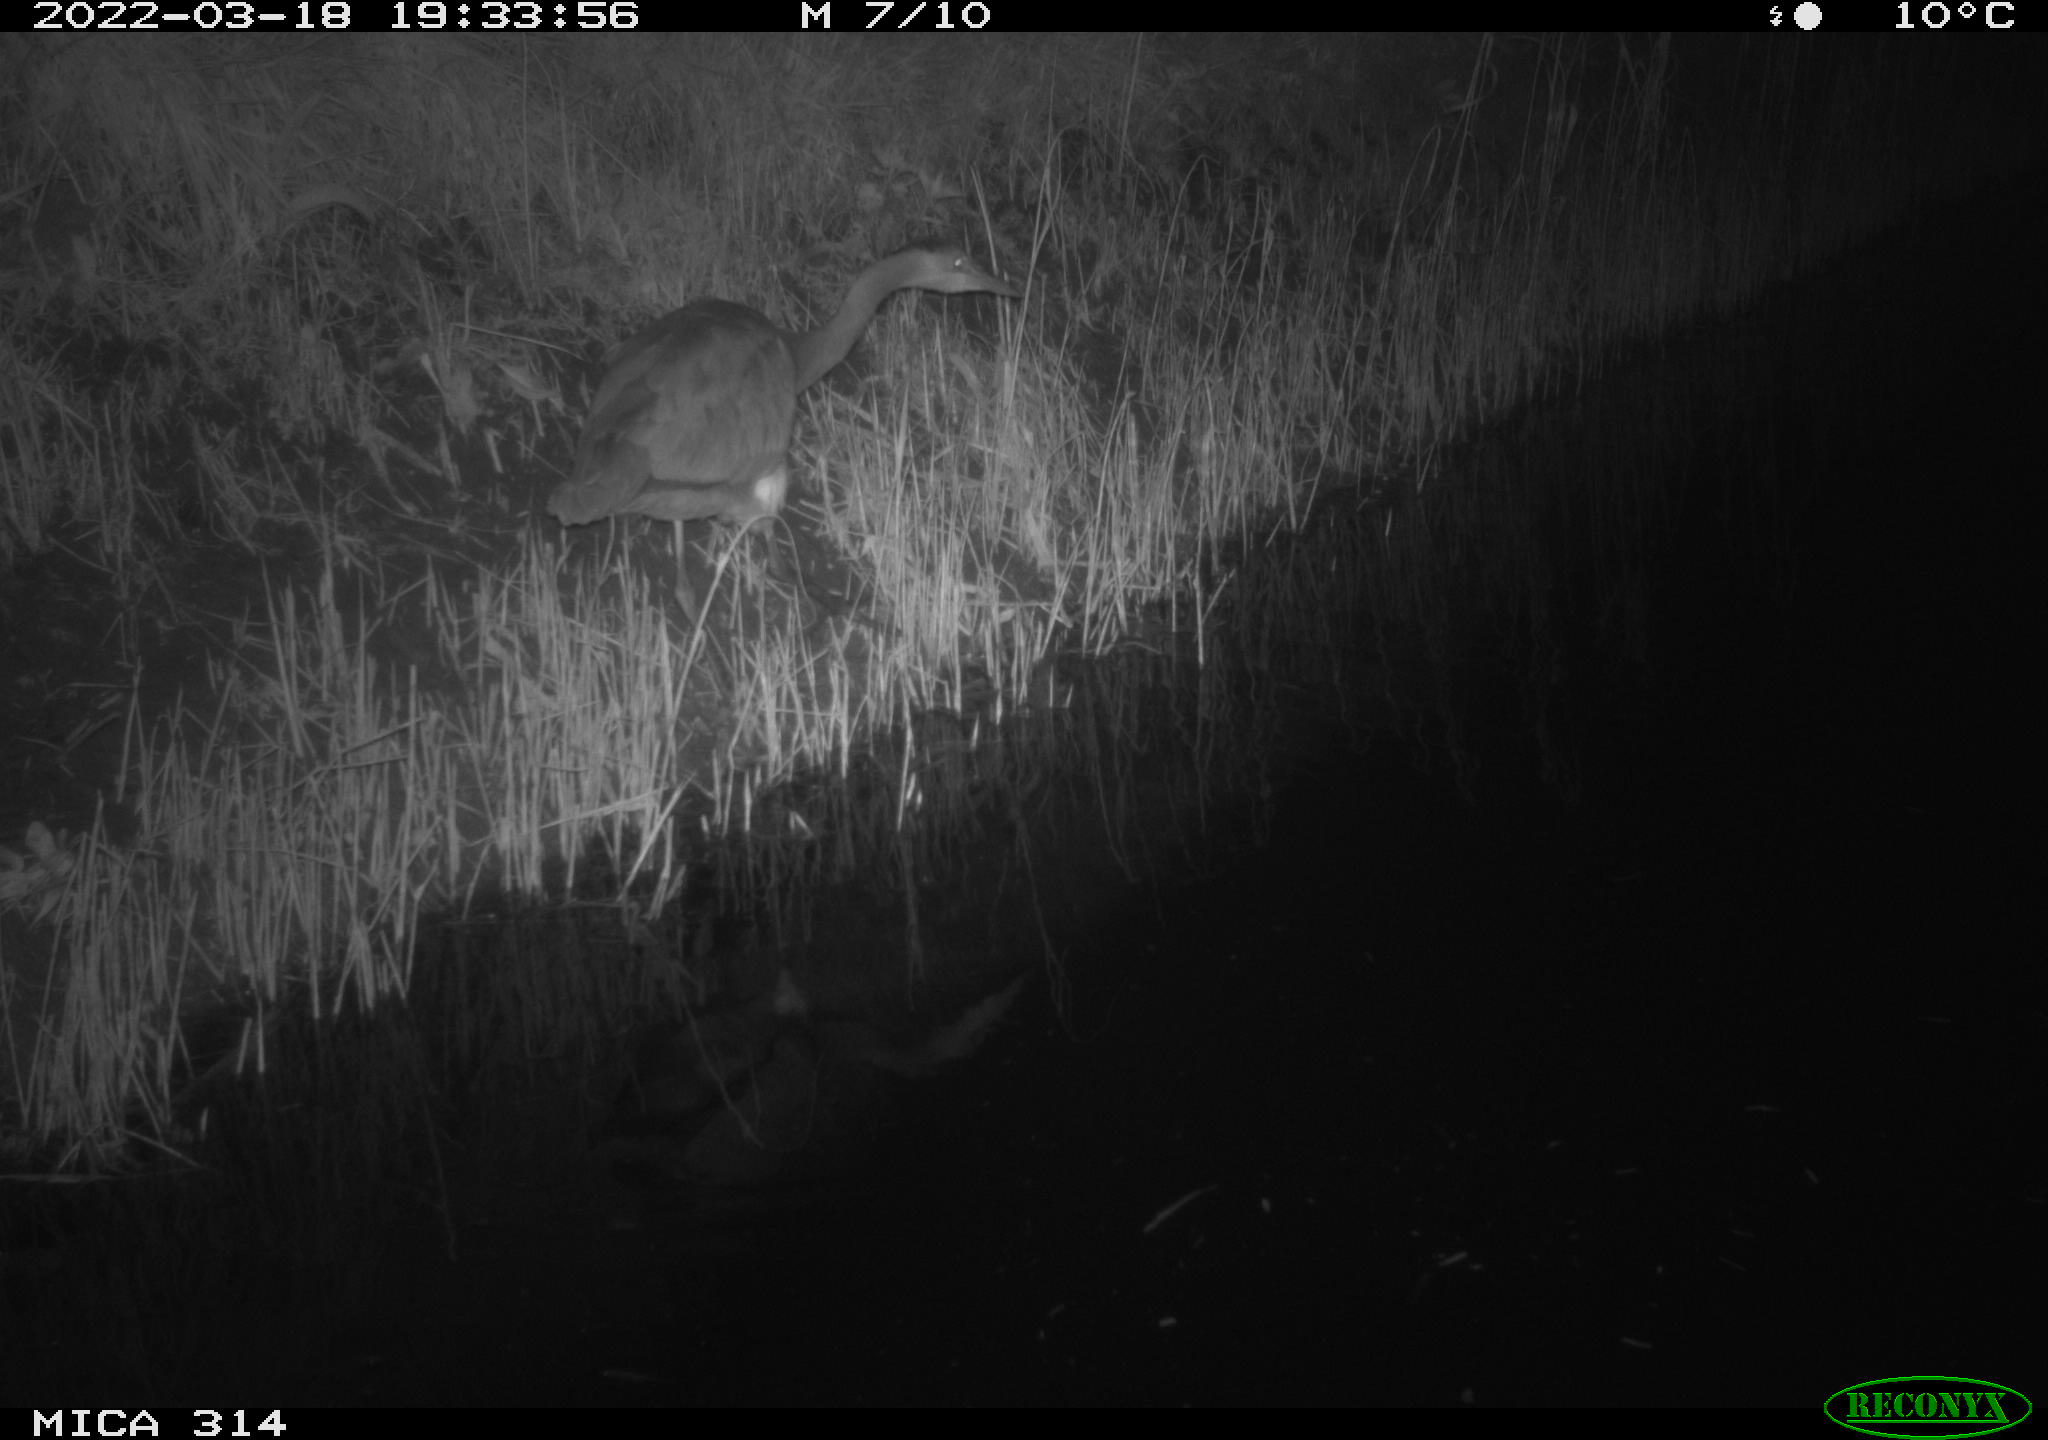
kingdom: Animalia
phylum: Chordata
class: Aves
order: Pelecaniformes
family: Ardeidae
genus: Ardea
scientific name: Ardea
